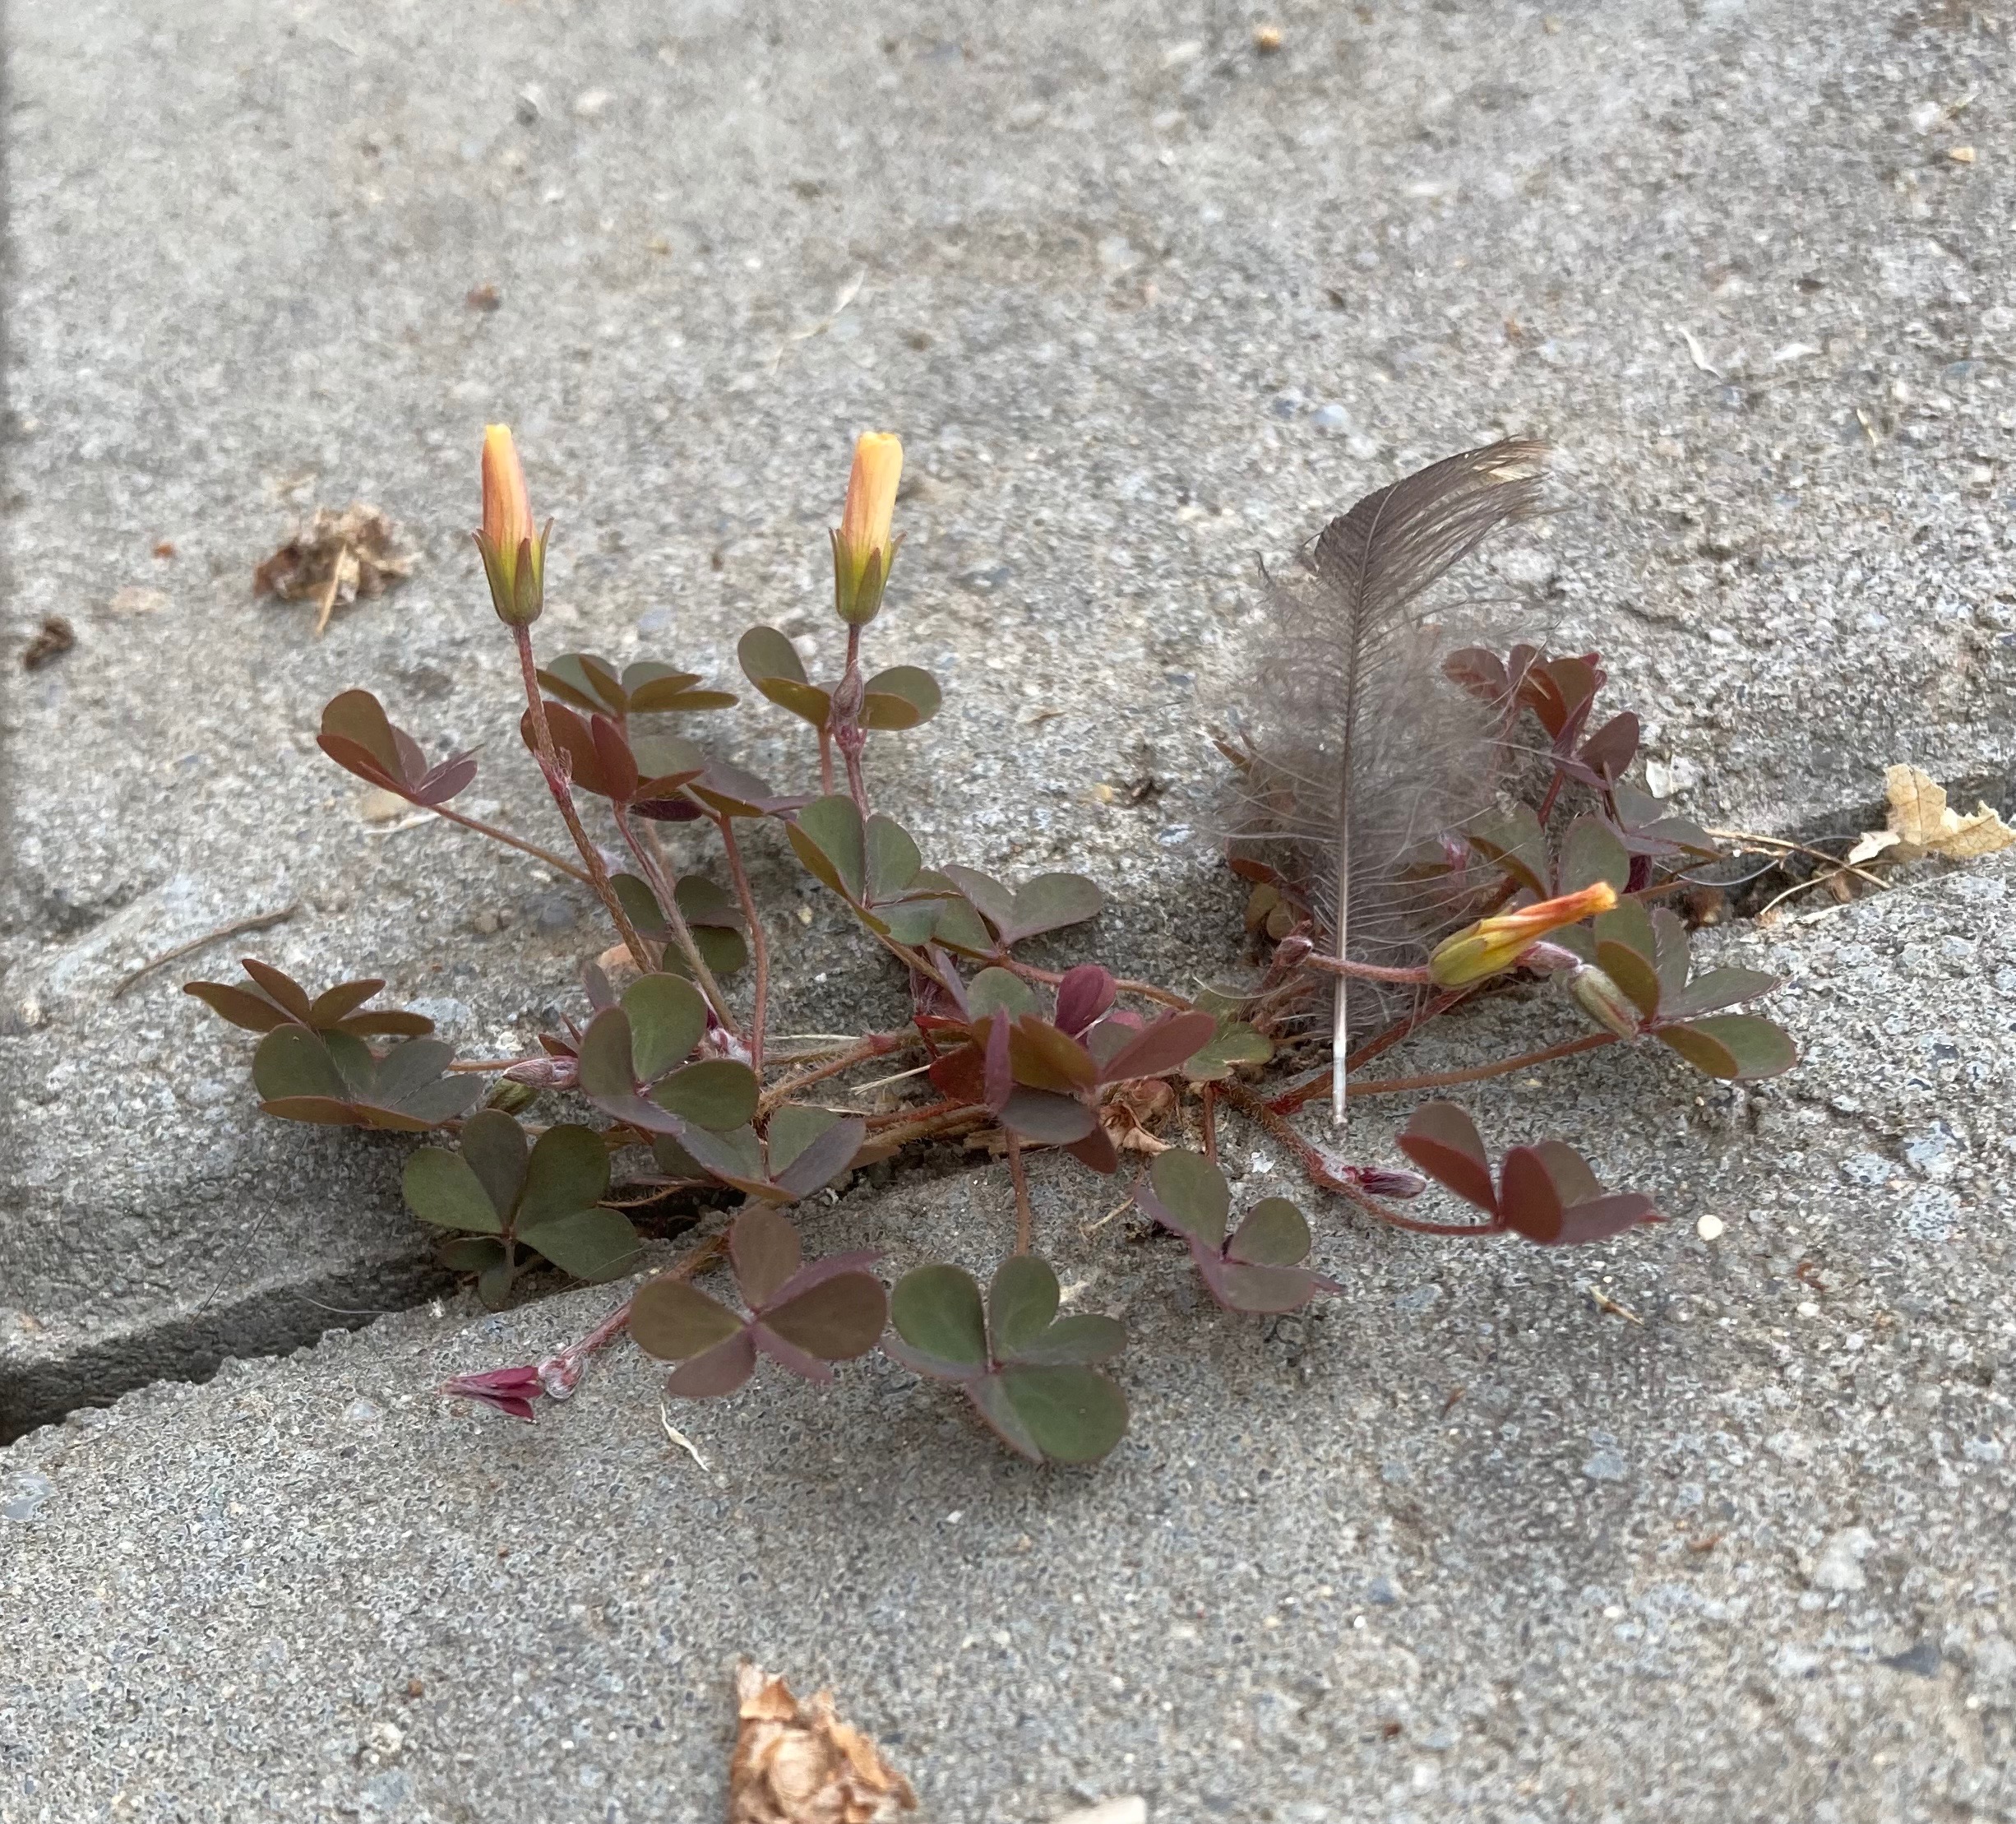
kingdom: Plantae
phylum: Tracheophyta
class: Magnoliopsida
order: Oxalidales
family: Oxalidaceae
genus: Oxalis
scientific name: Oxalis corniculata
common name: Nedliggende surkløver
